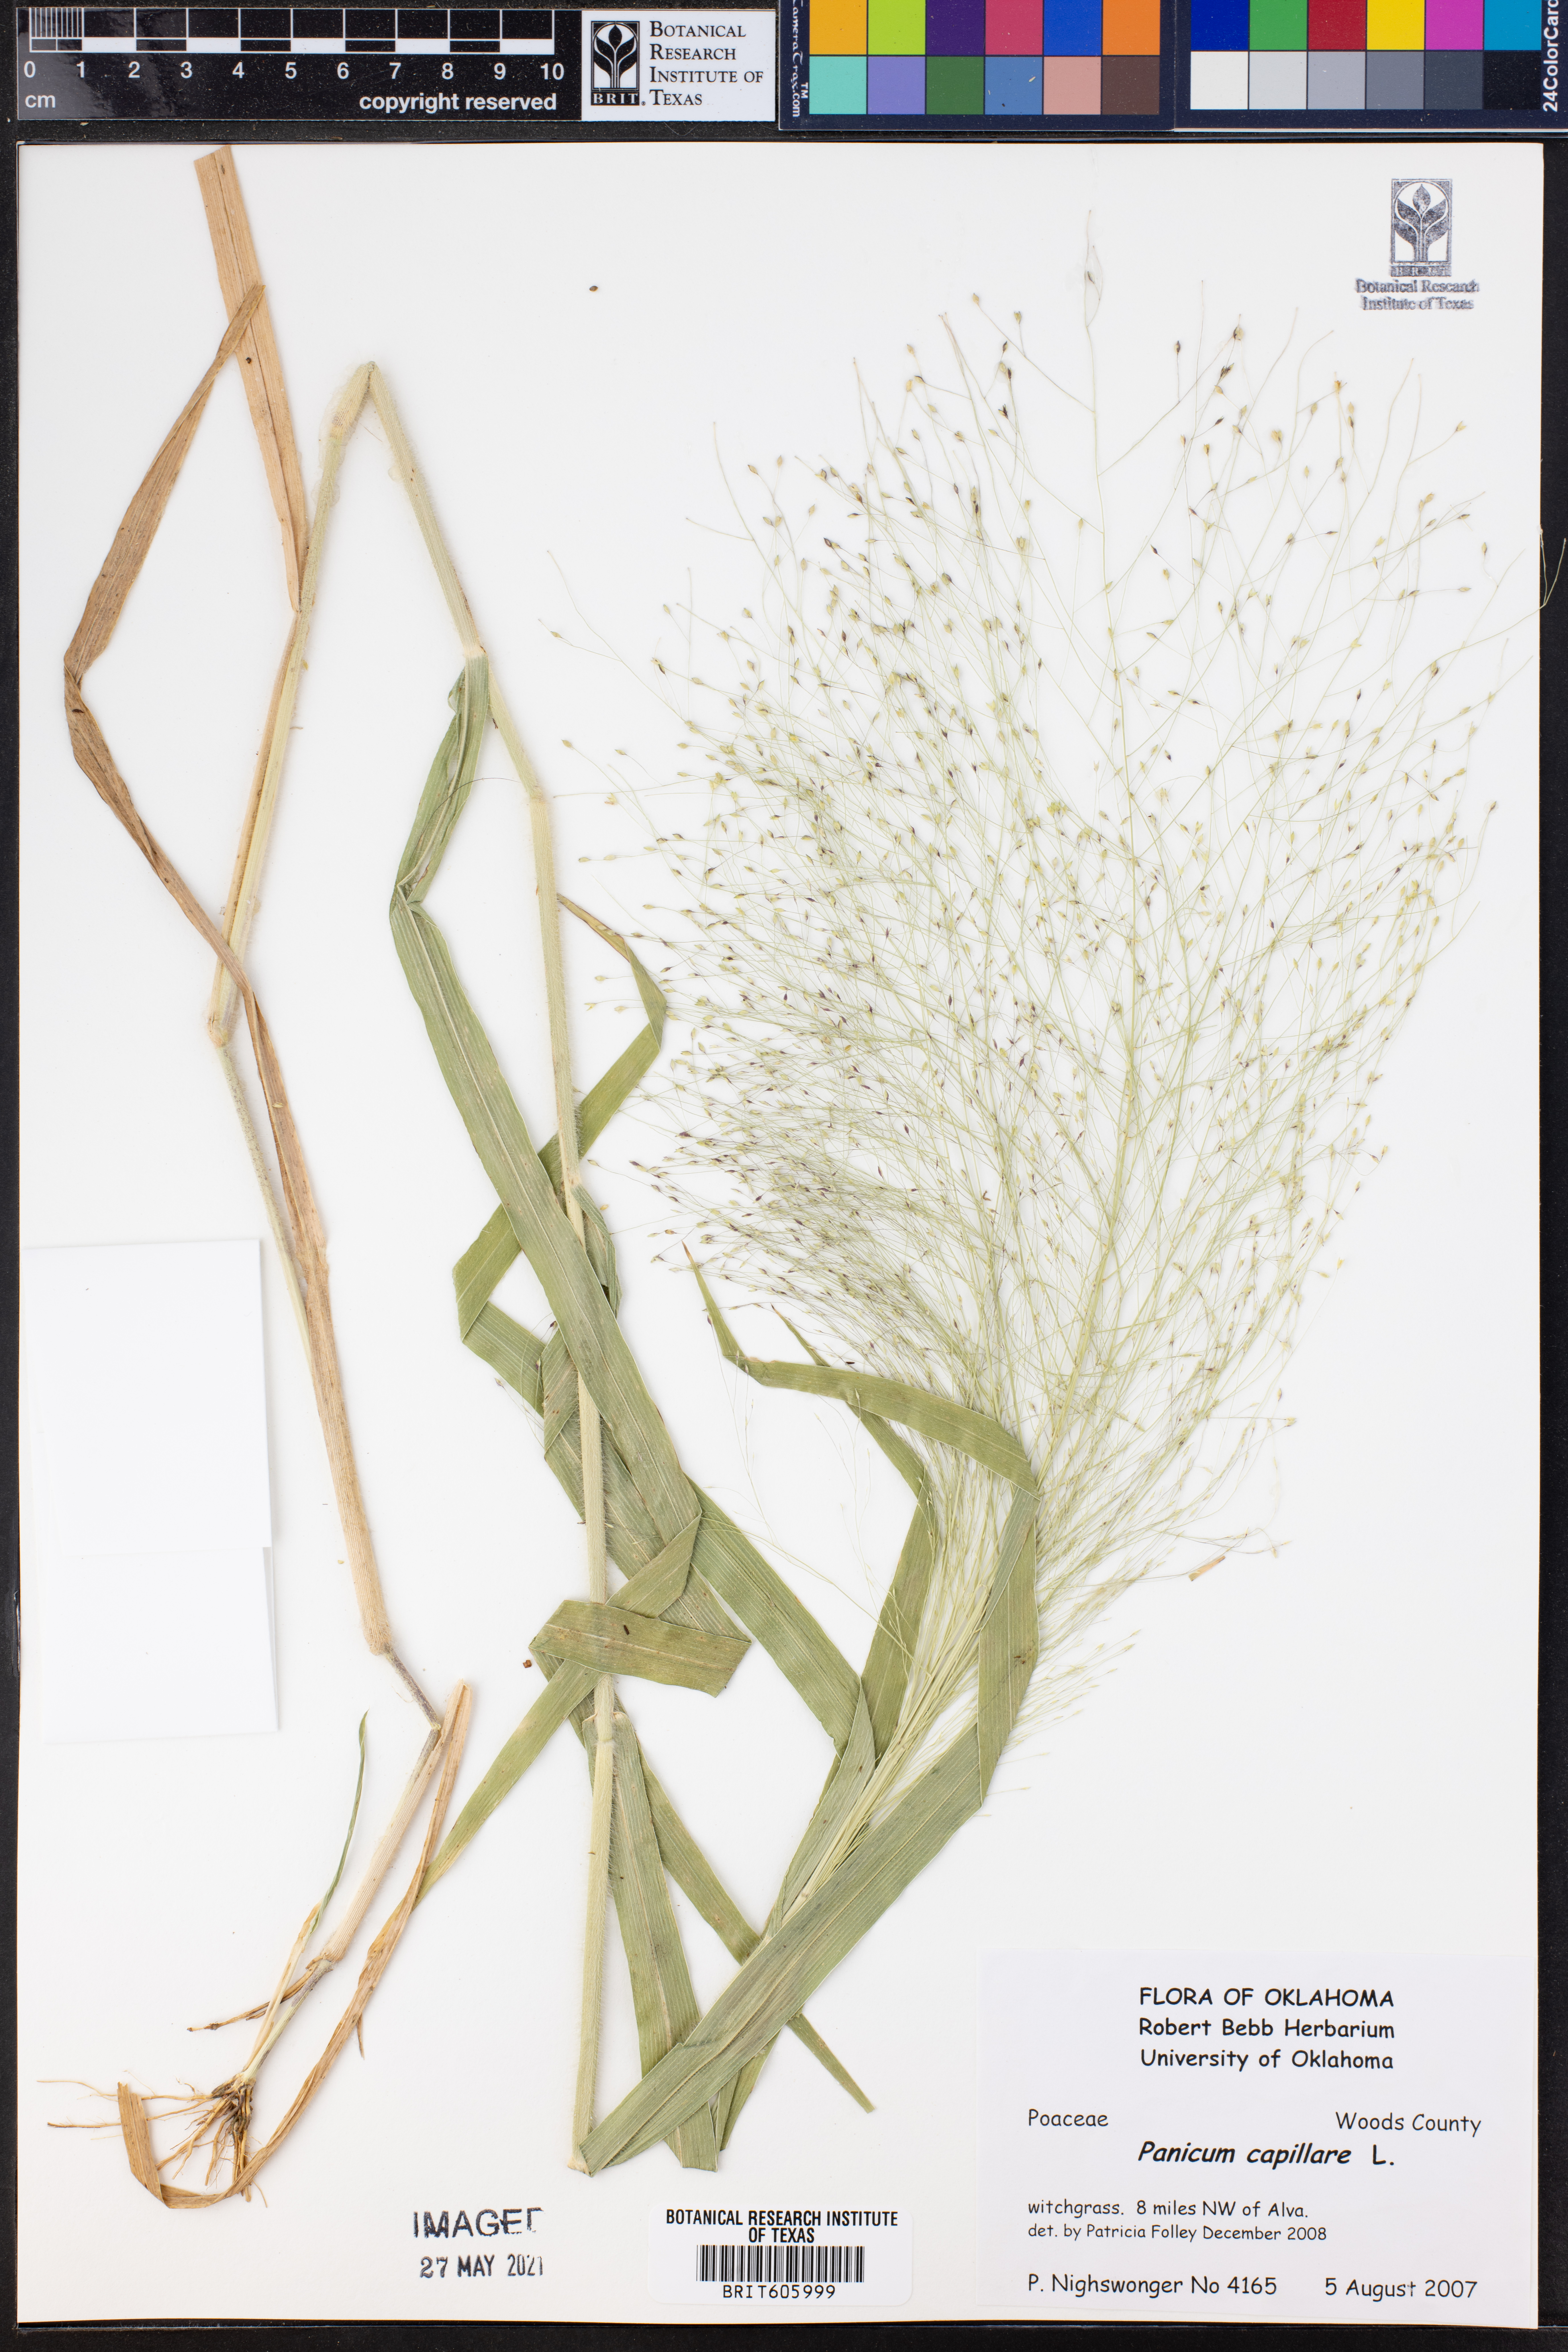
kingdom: Plantae
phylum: Tracheophyta
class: Liliopsida
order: Poales
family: Poaceae
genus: Panicum
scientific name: Panicum capillare
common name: Witch-grass
